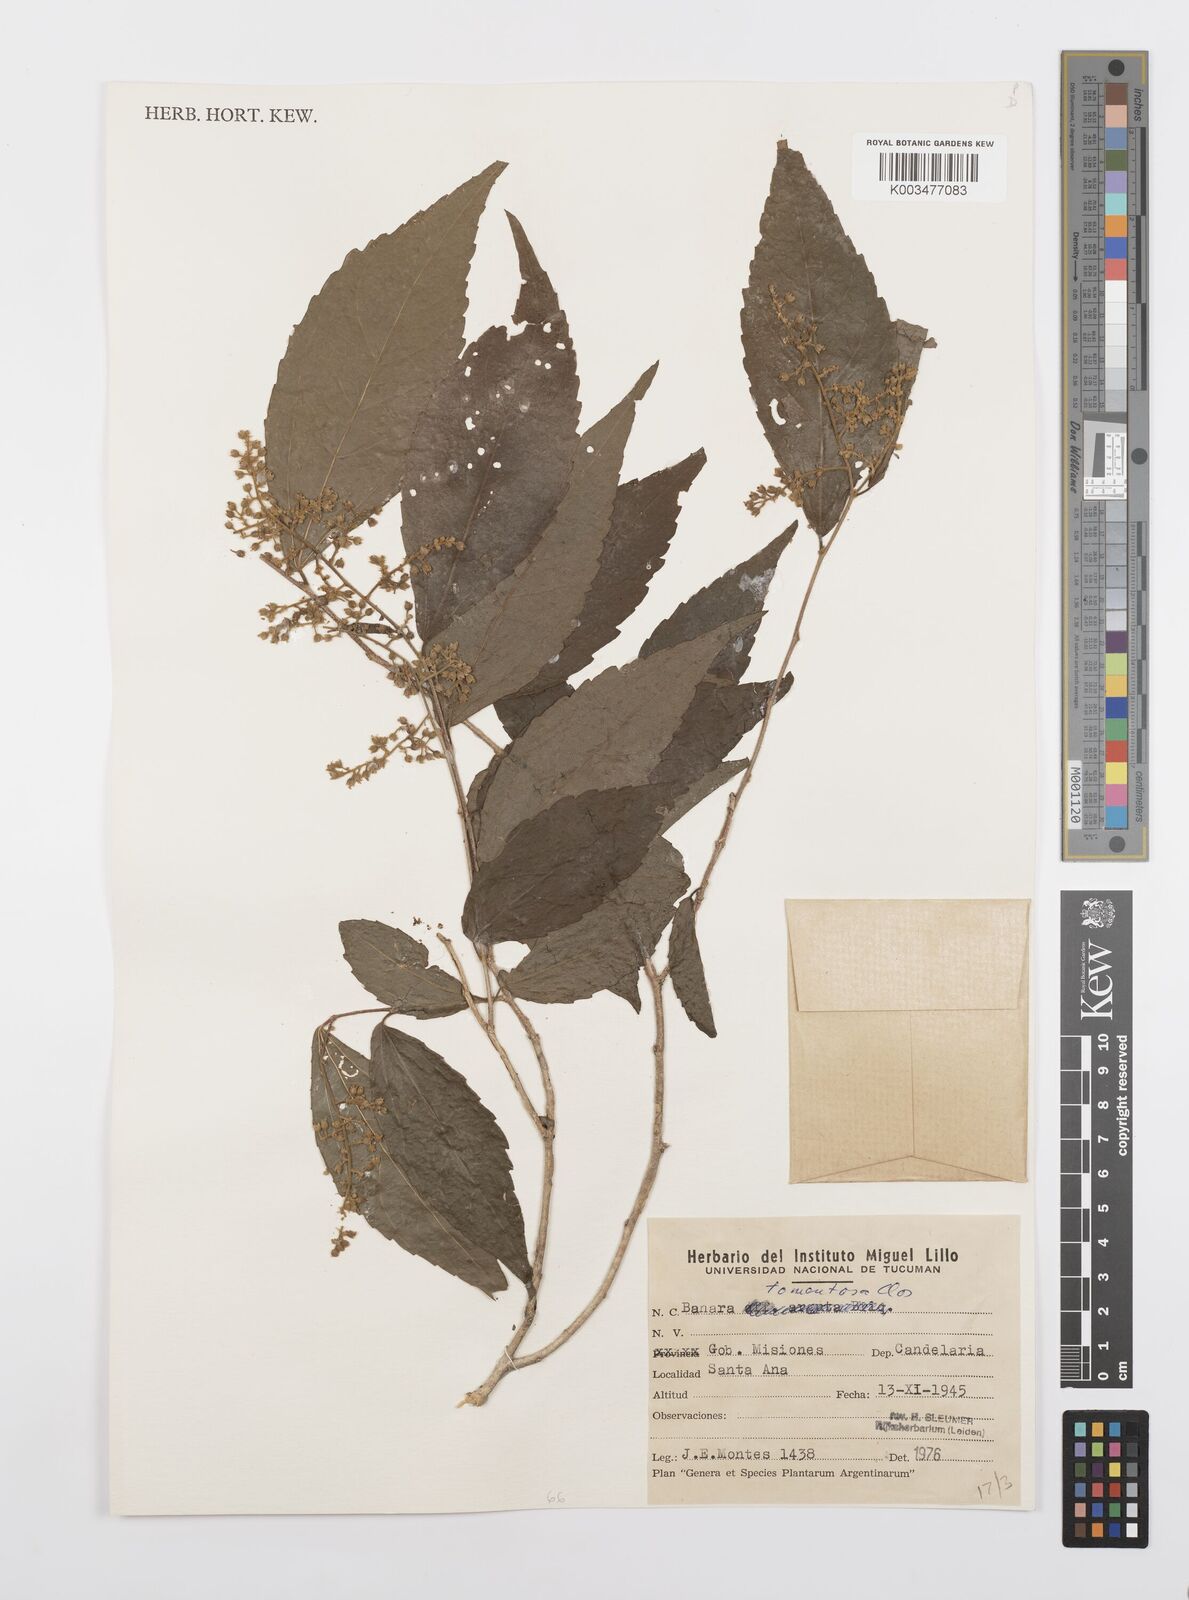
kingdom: Plantae
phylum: Tracheophyta
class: Magnoliopsida
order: Malpighiales
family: Salicaceae
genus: Banara
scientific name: Banara tomentosa
